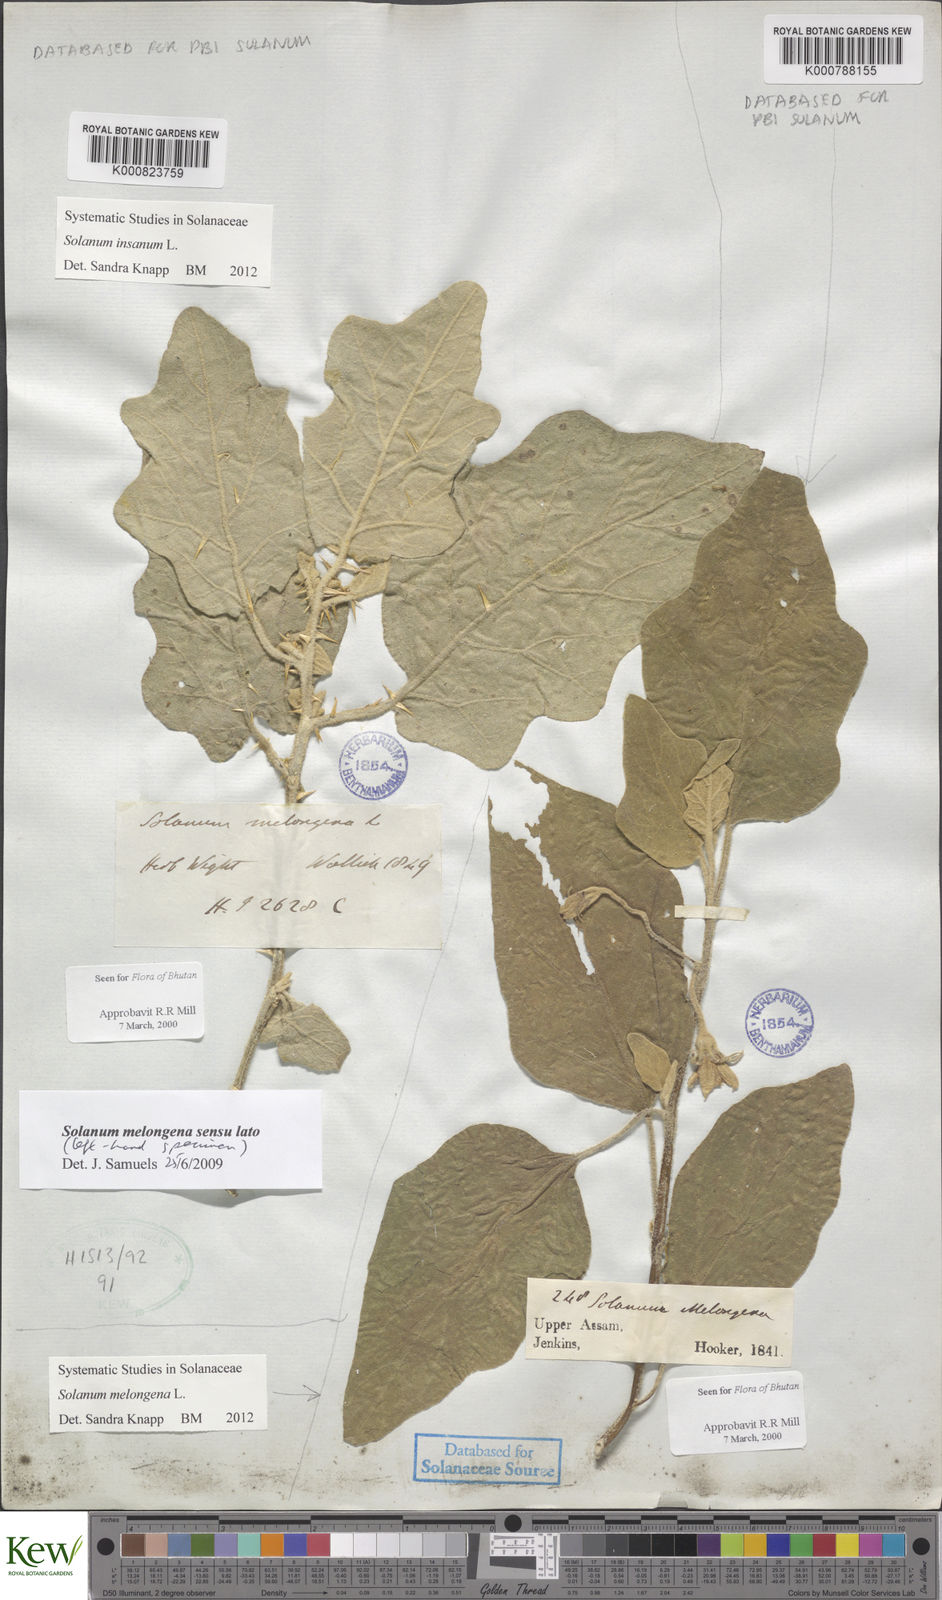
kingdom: Plantae
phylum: Tracheophyta
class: Magnoliopsida
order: Solanales
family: Solanaceae
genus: Solanum
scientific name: Solanum insanum
